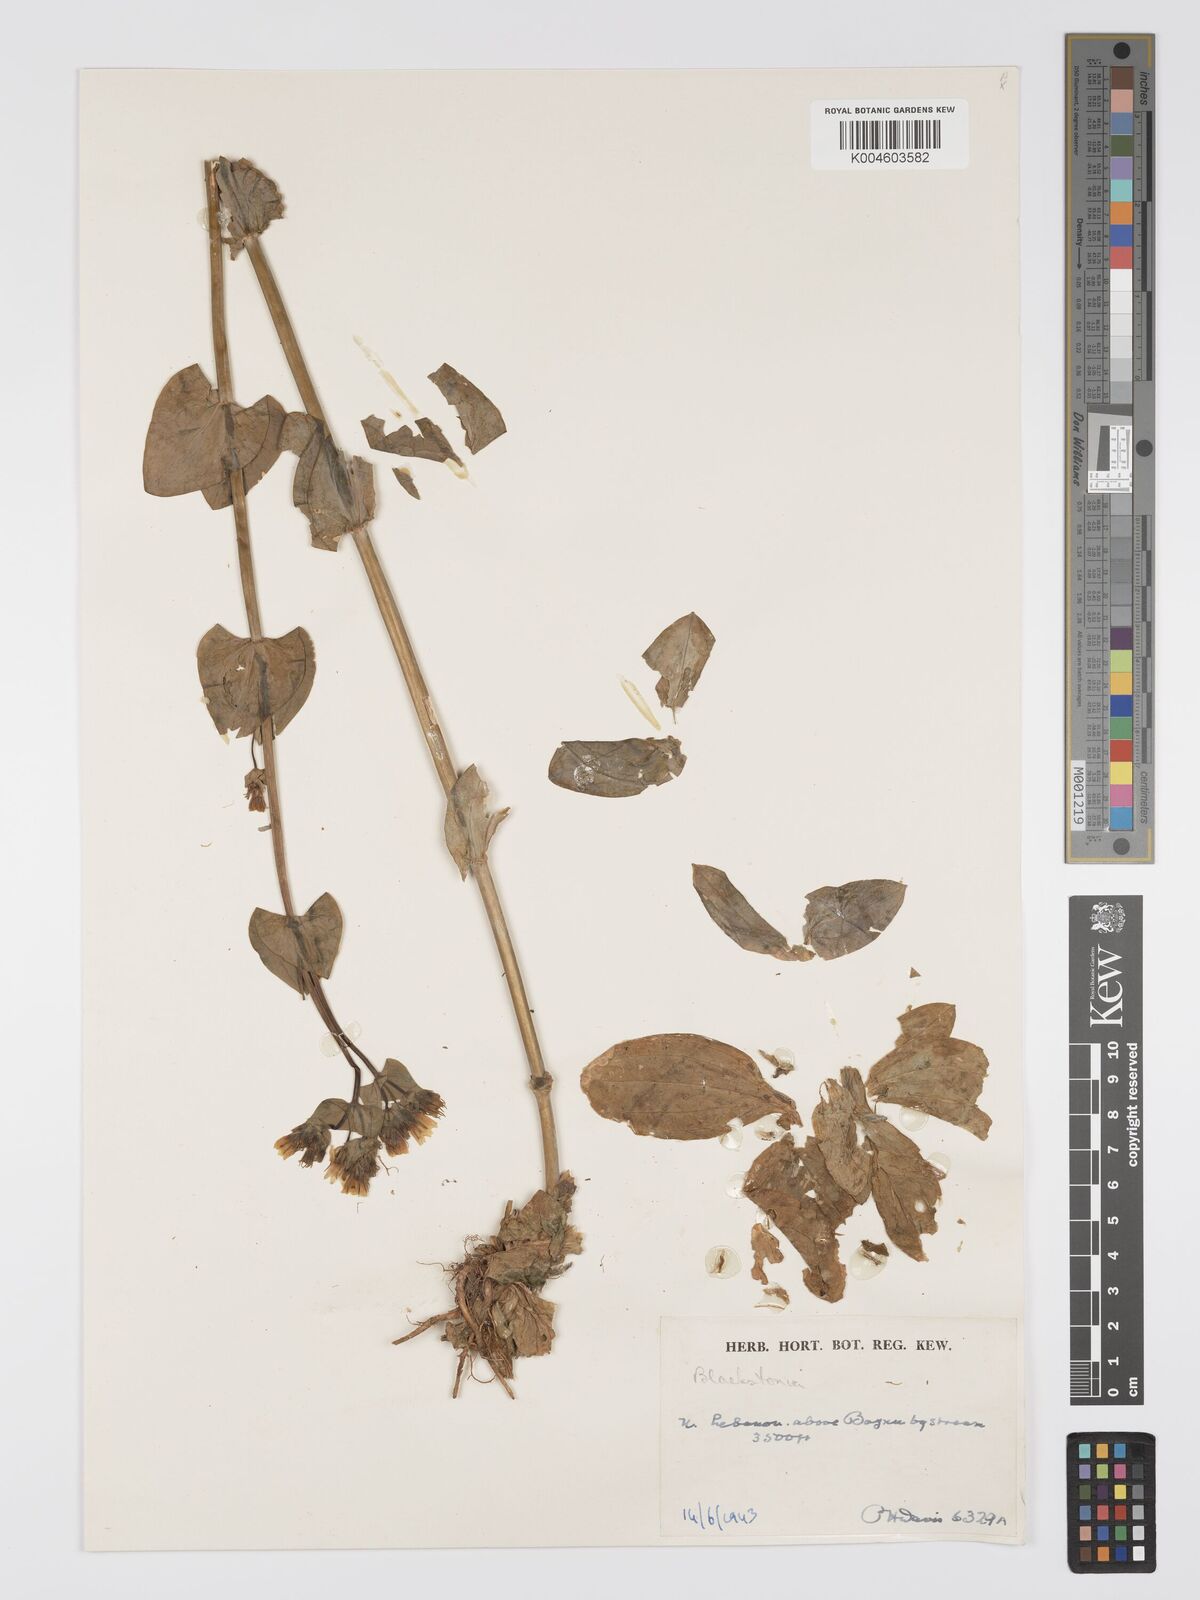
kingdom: Plantae
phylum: Tracheophyta
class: Magnoliopsida
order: Gentianales
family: Gentianaceae
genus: Blackstonia
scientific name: Blackstonia perfoliata
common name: Yellow-wort
